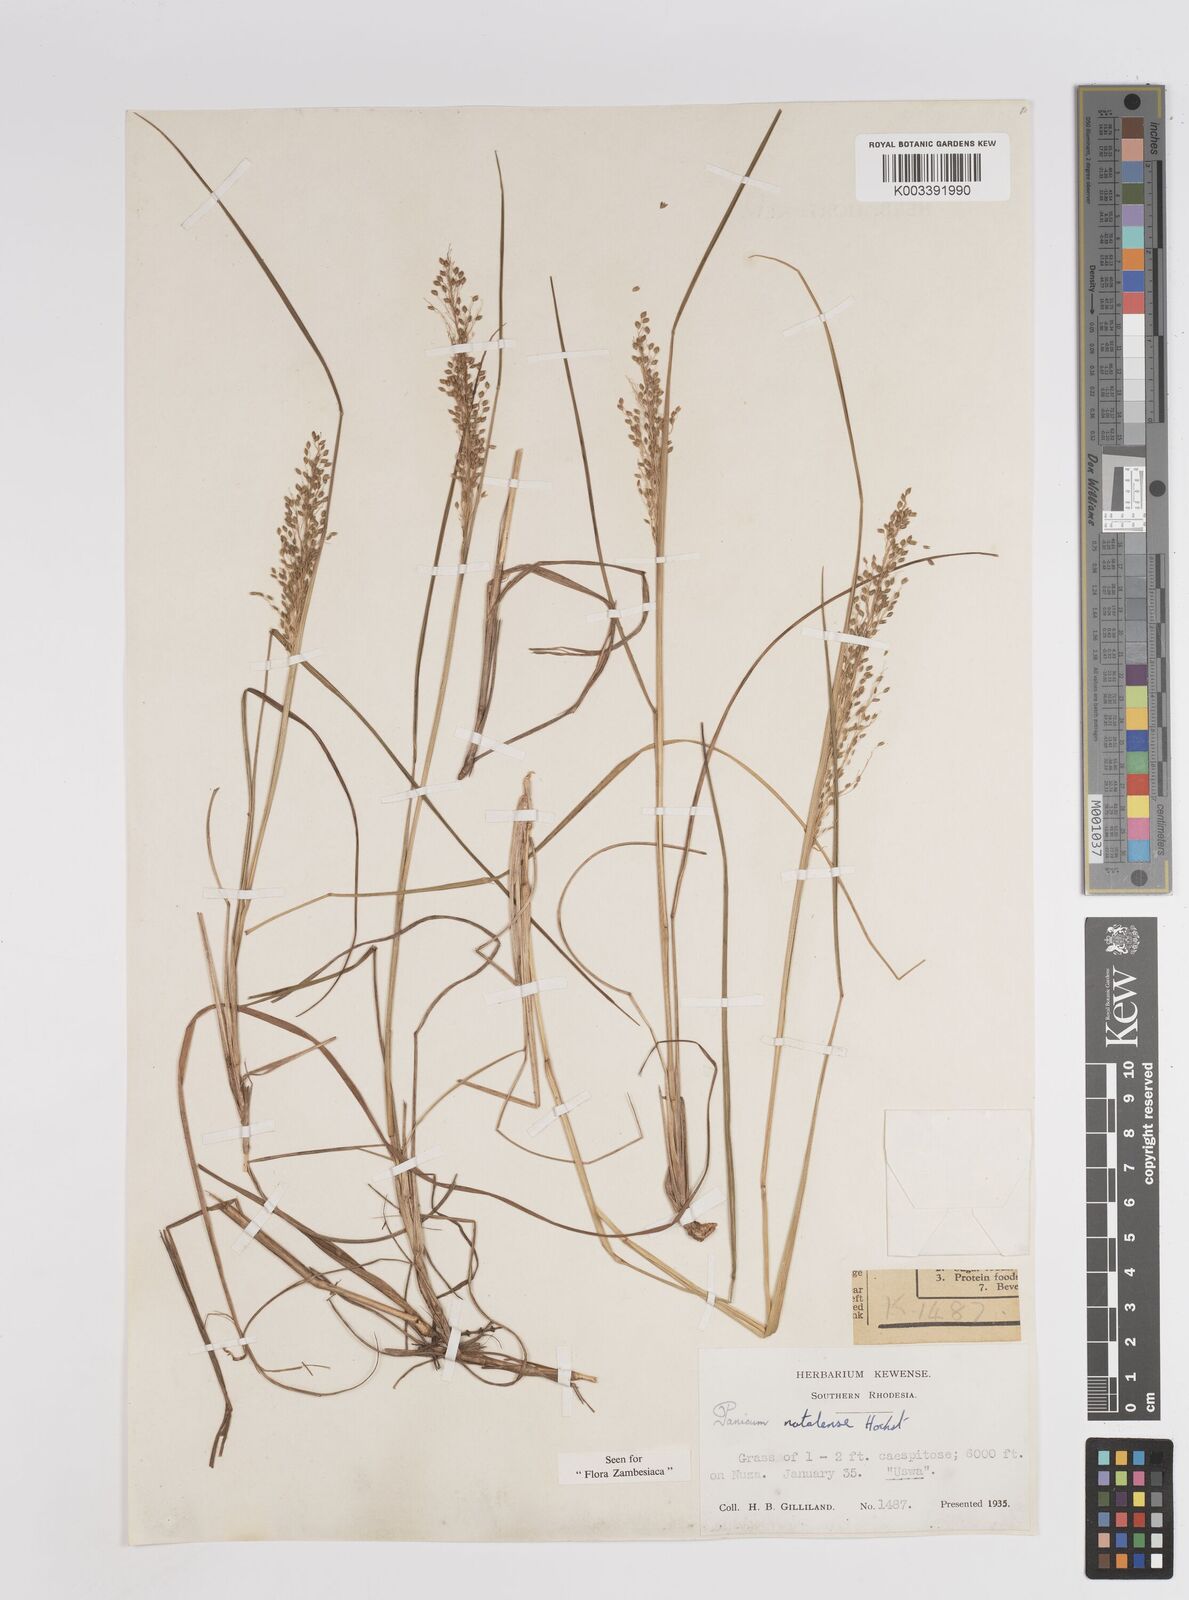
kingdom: Plantae
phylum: Tracheophyta
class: Liliopsida
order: Poales
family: Poaceae
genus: Trichanthecium
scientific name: Trichanthecium natalense
